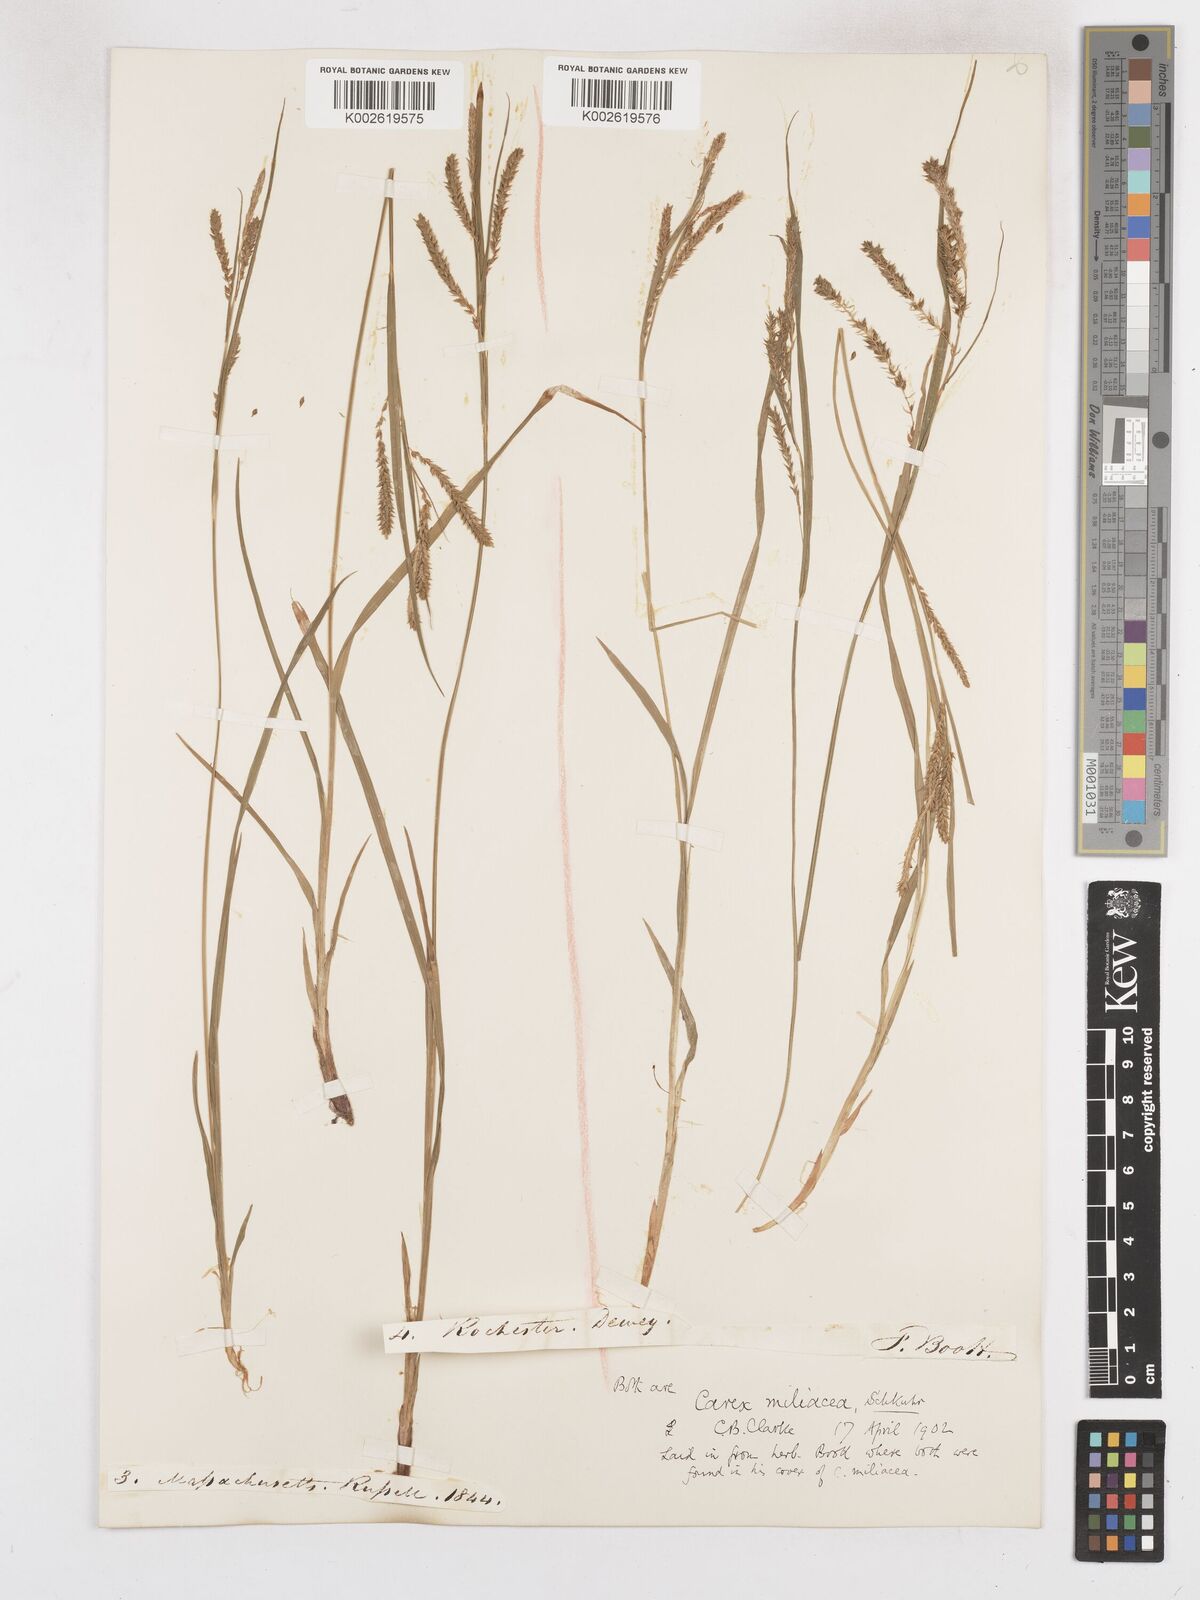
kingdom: Plantae
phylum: Tracheophyta
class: Liliopsida
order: Poales
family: Cyperaceae
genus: Carex
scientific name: Carex prasina
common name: Drooping sedge
